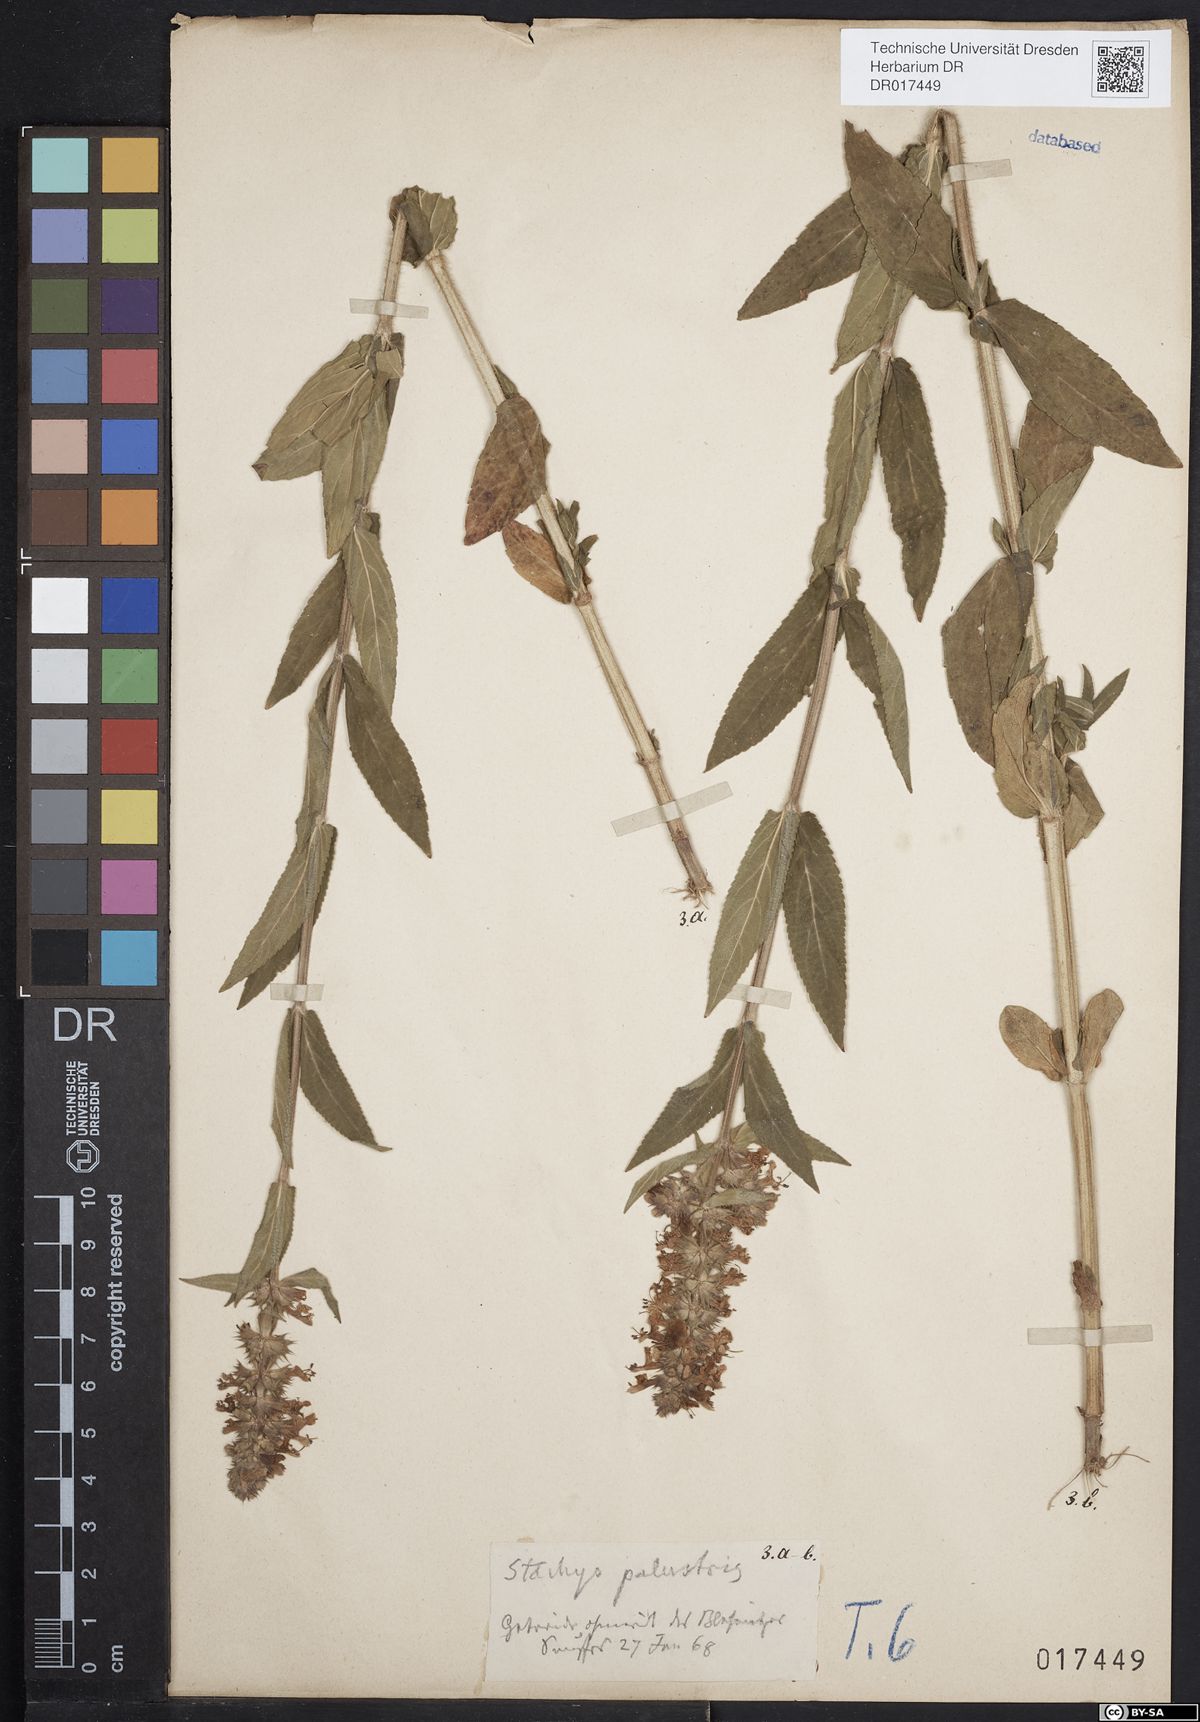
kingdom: Plantae
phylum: Tracheophyta
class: Magnoliopsida
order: Lamiales
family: Lamiaceae
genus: Stachys
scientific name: Stachys palustris
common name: Marsh woundwort
